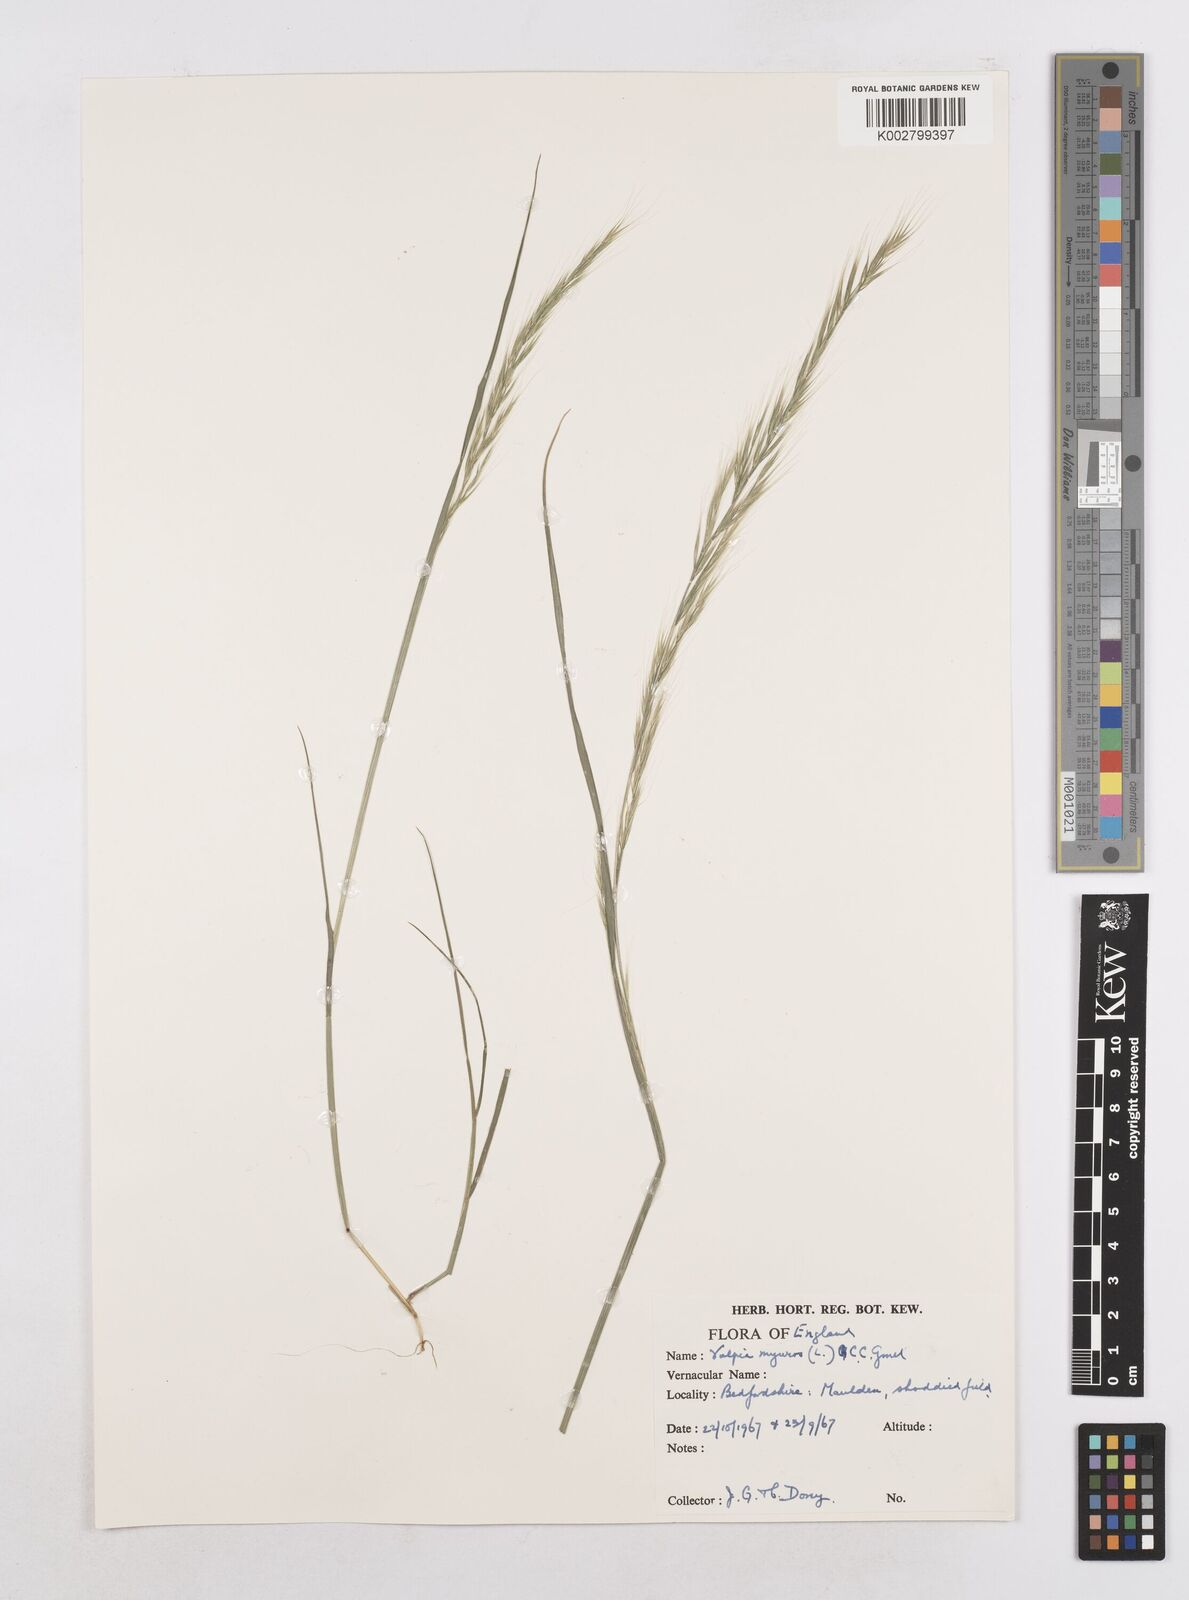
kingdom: Plantae
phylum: Tracheophyta
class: Liliopsida
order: Poales
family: Poaceae
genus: Festuca
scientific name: Festuca myuros
